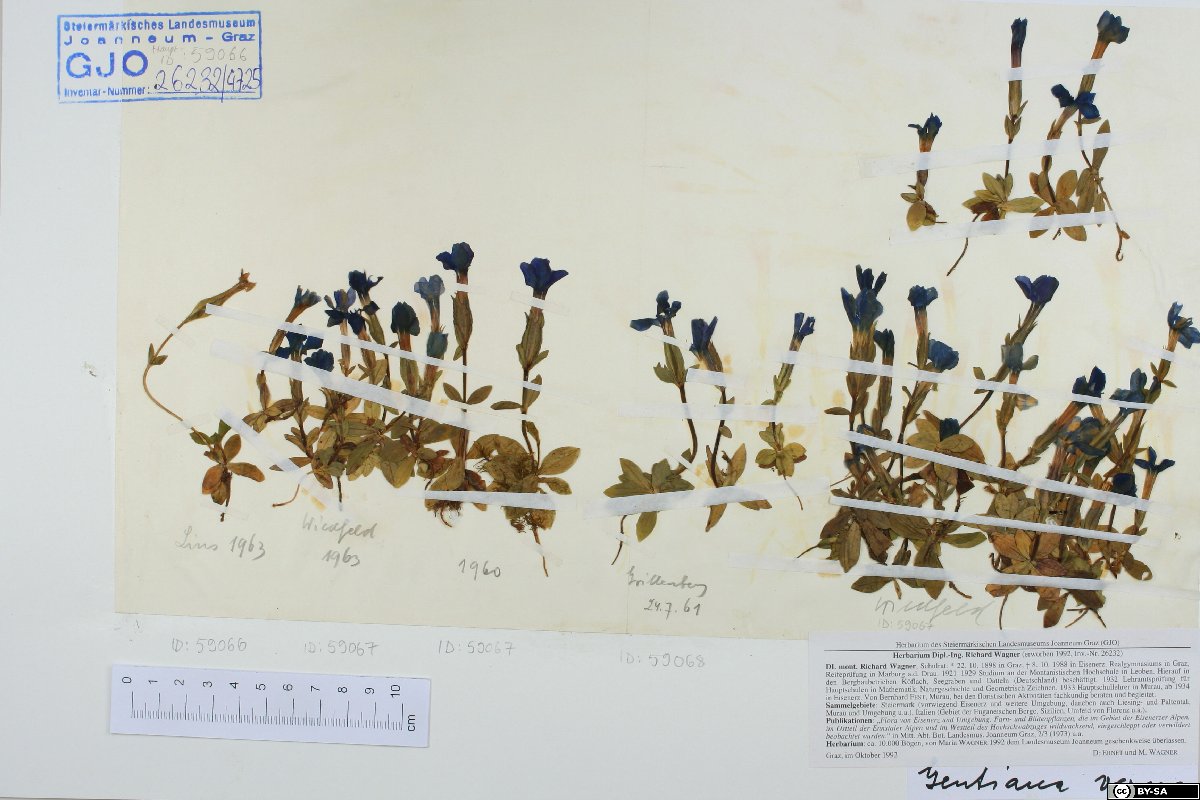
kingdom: Plantae
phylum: Tracheophyta
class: Magnoliopsida
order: Gentianales
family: Gentianaceae
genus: Gentiana
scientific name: Gentiana verna
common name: Spring gentian
